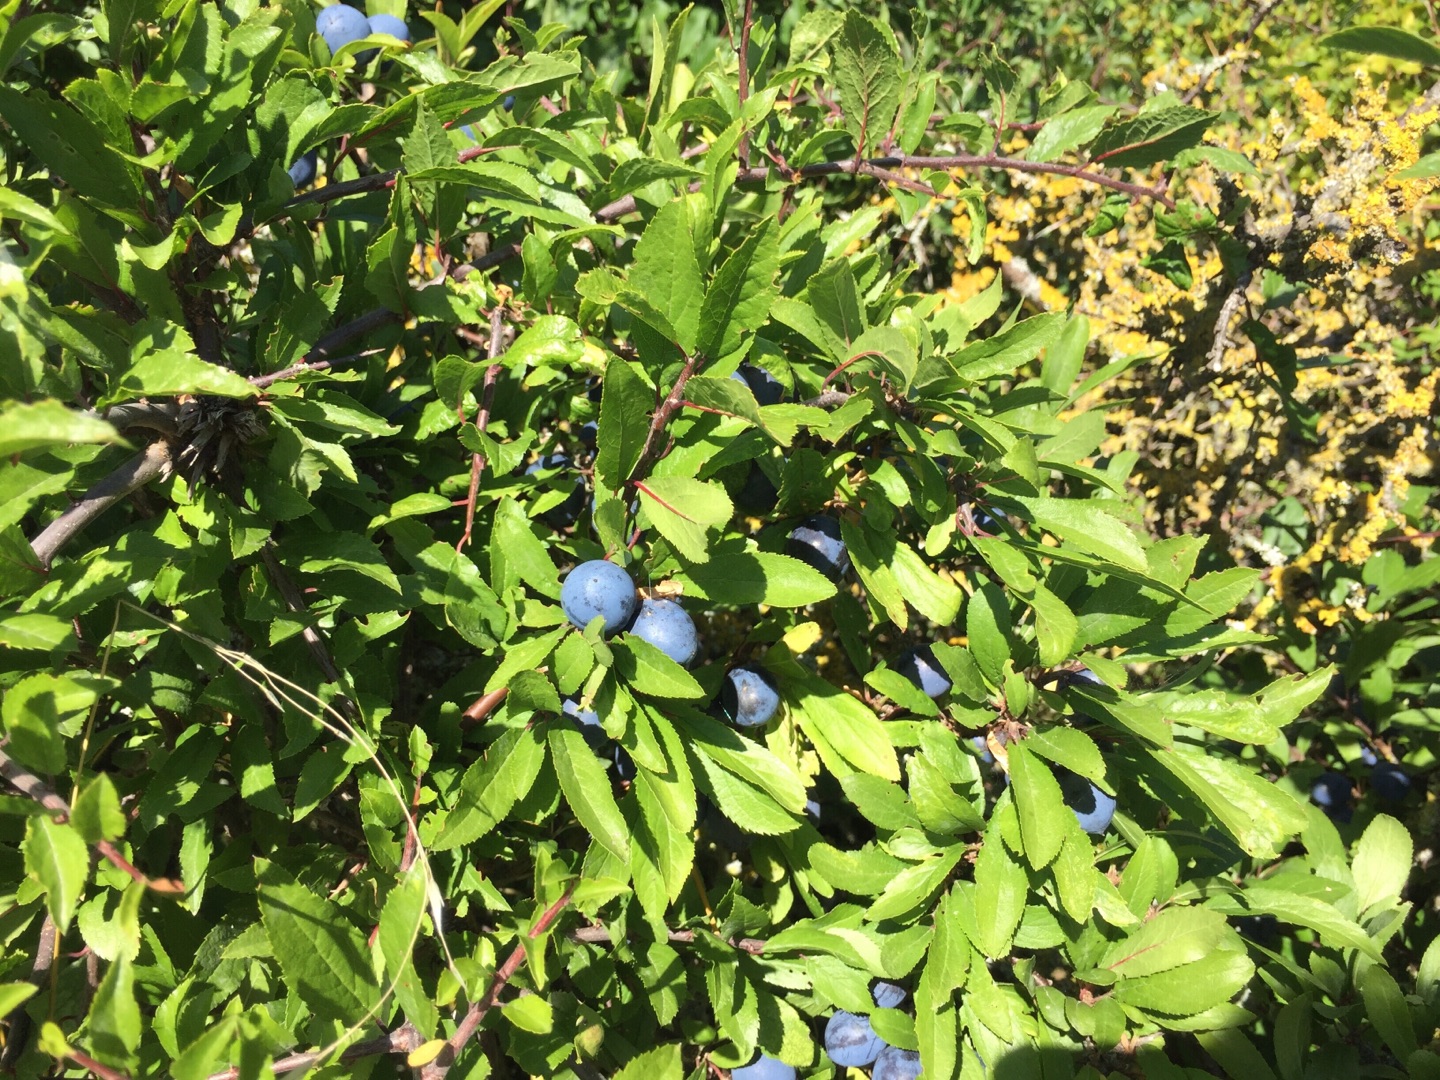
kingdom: Plantae
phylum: Tracheophyta
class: Magnoliopsida
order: Rosales
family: Rosaceae
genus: Prunus
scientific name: Prunus domestica
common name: Kræge
